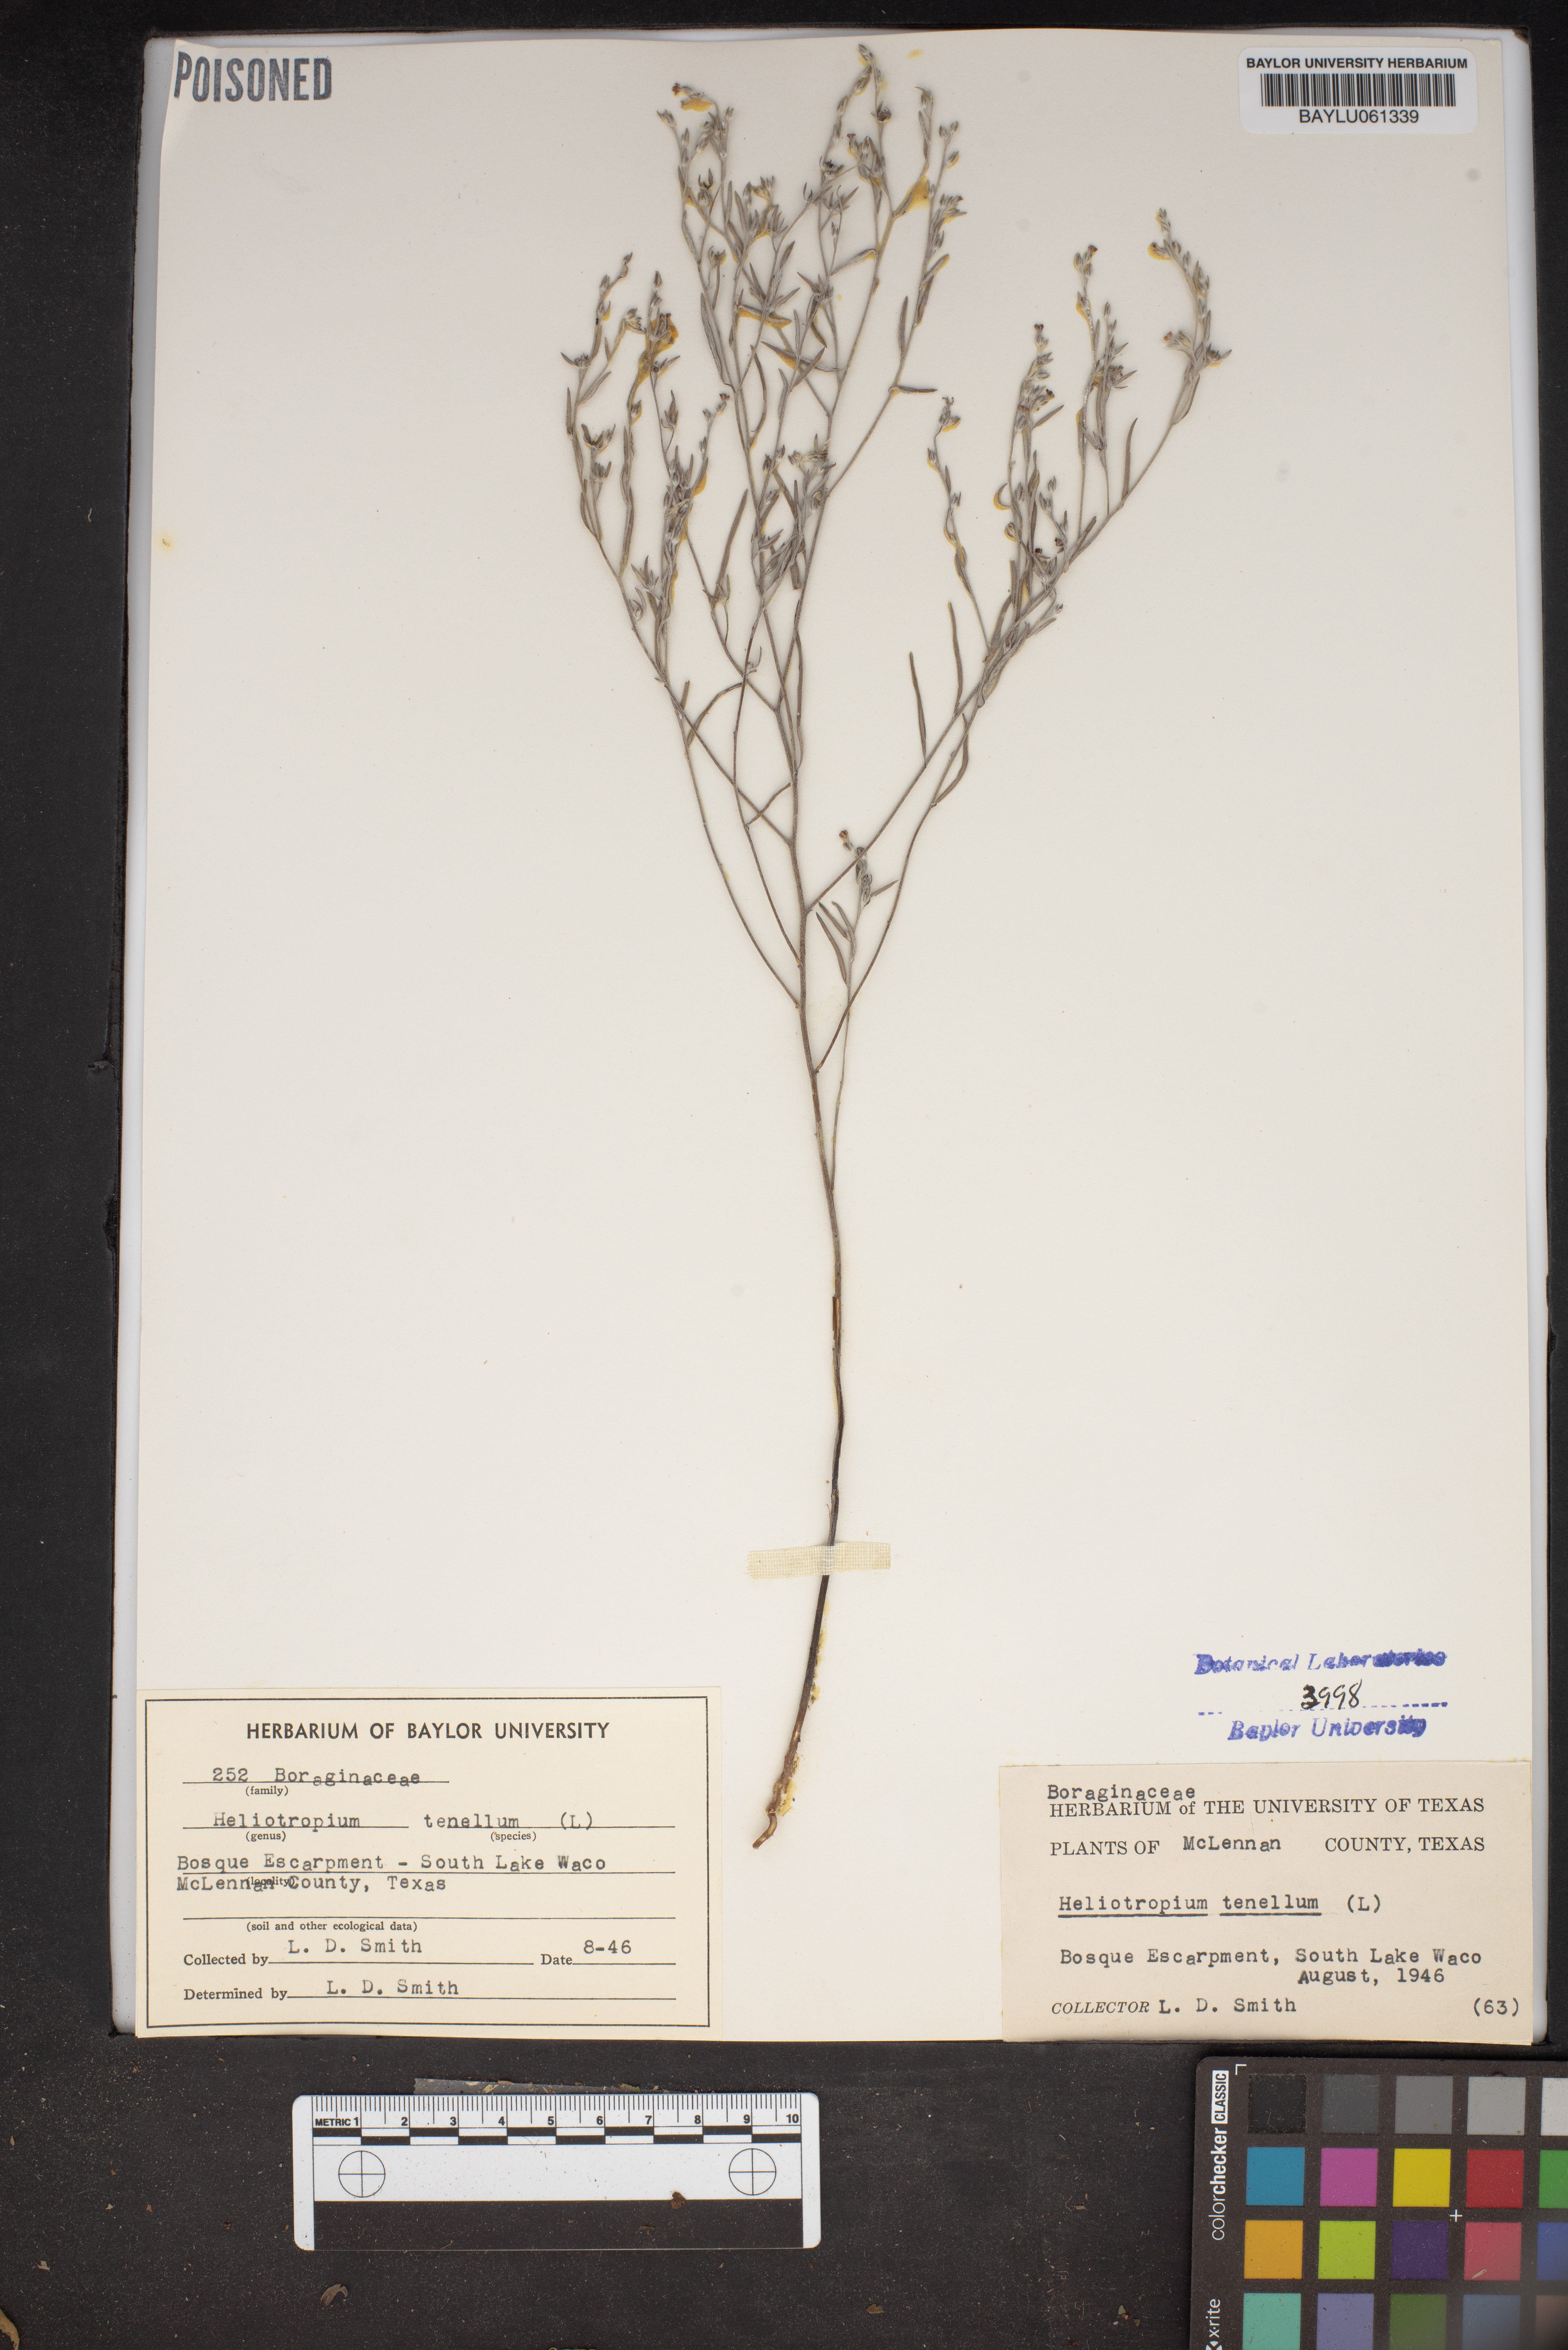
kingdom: Plantae
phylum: Tracheophyta
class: Magnoliopsida
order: Boraginales
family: Heliotropiaceae
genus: Euploca
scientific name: Euploca tenella
